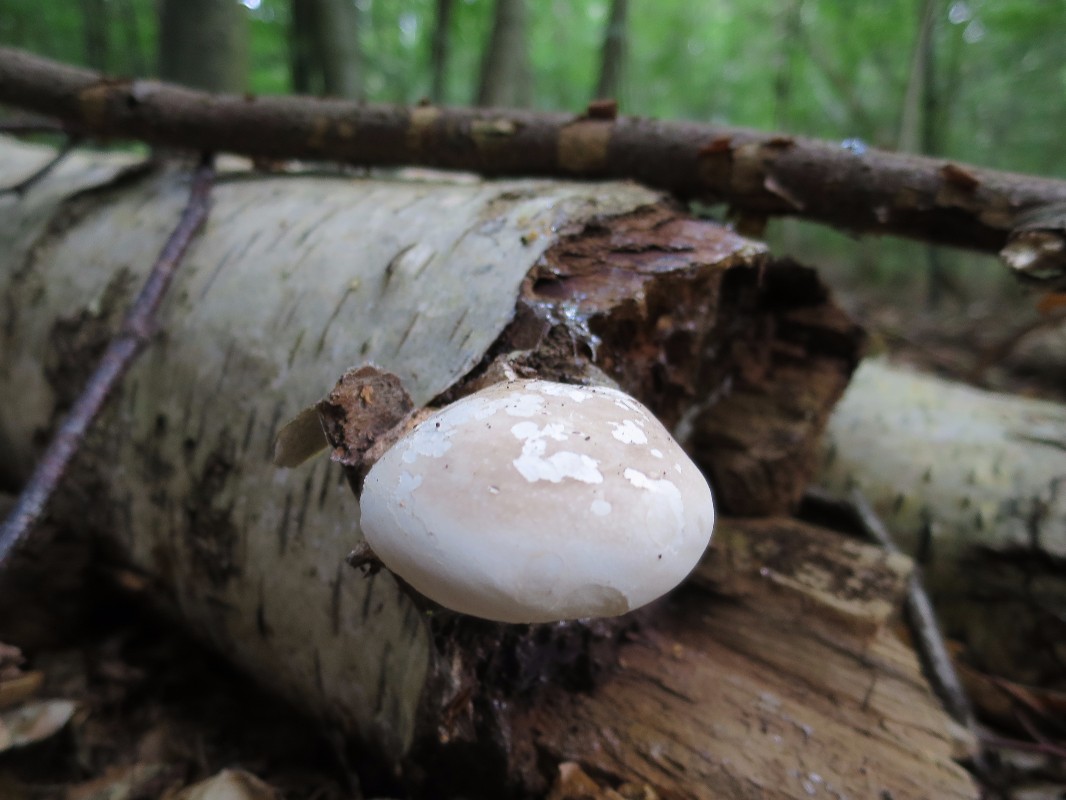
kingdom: Fungi
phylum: Basidiomycota
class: Agaricomycetes
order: Polyporales
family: Fomitopsidaceae
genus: Fomitopsis
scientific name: Fomitopsis betulina
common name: birkeporesvamp
